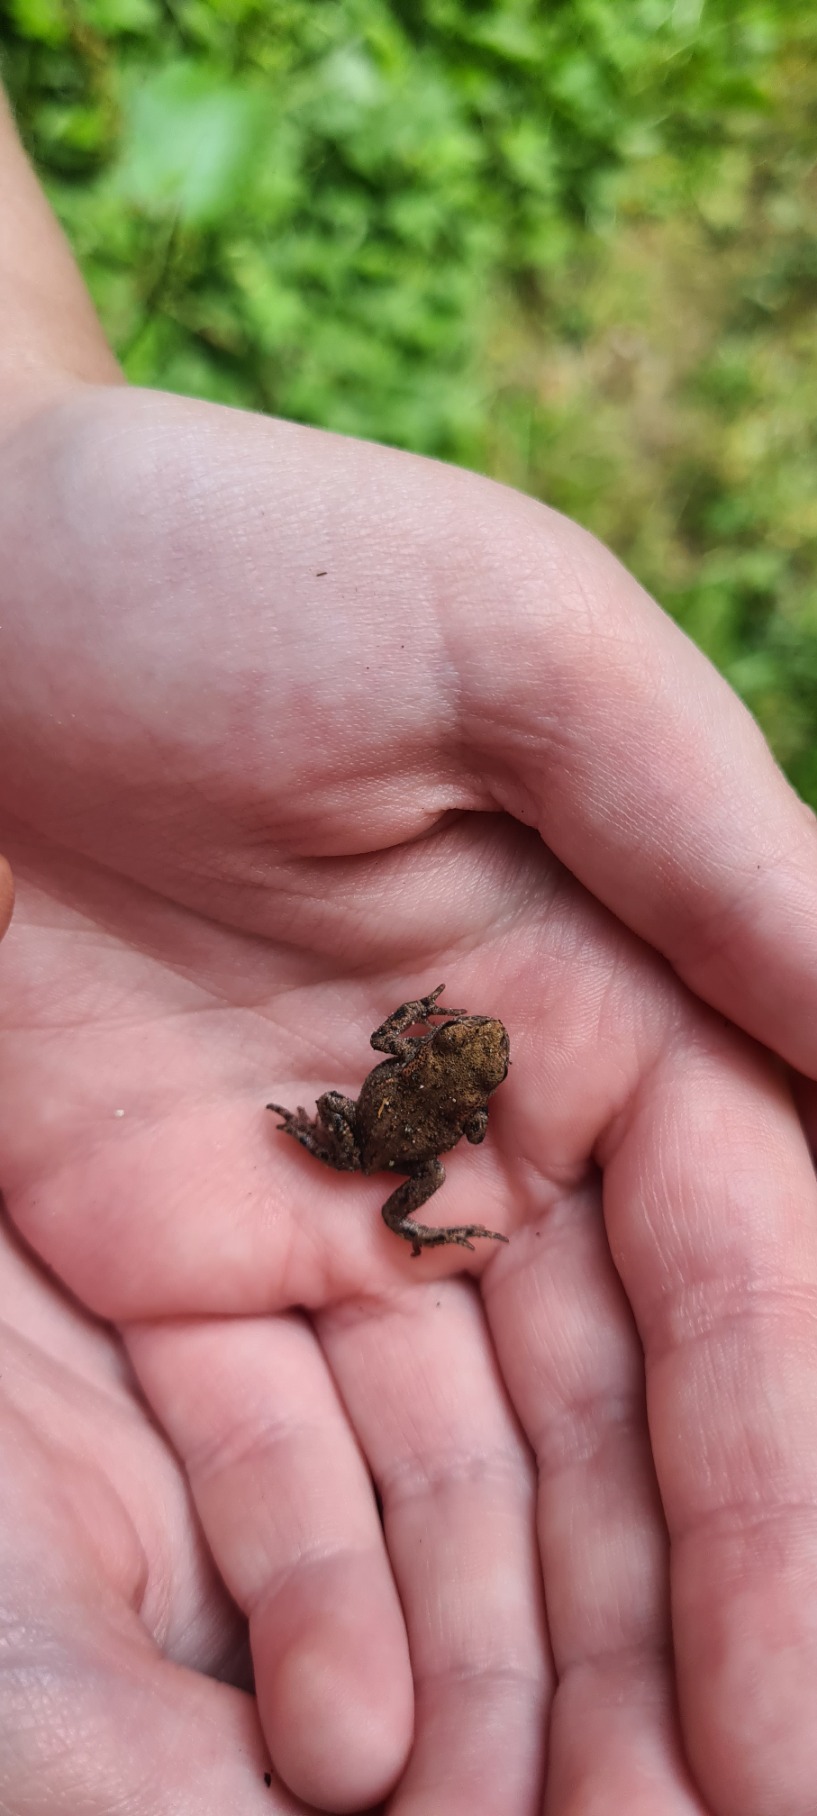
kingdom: Animalia
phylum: Chordata
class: Amphibia
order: Anura
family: Bufonidae
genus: Bufo
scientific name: Bufo bufo
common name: Skrubtudse
